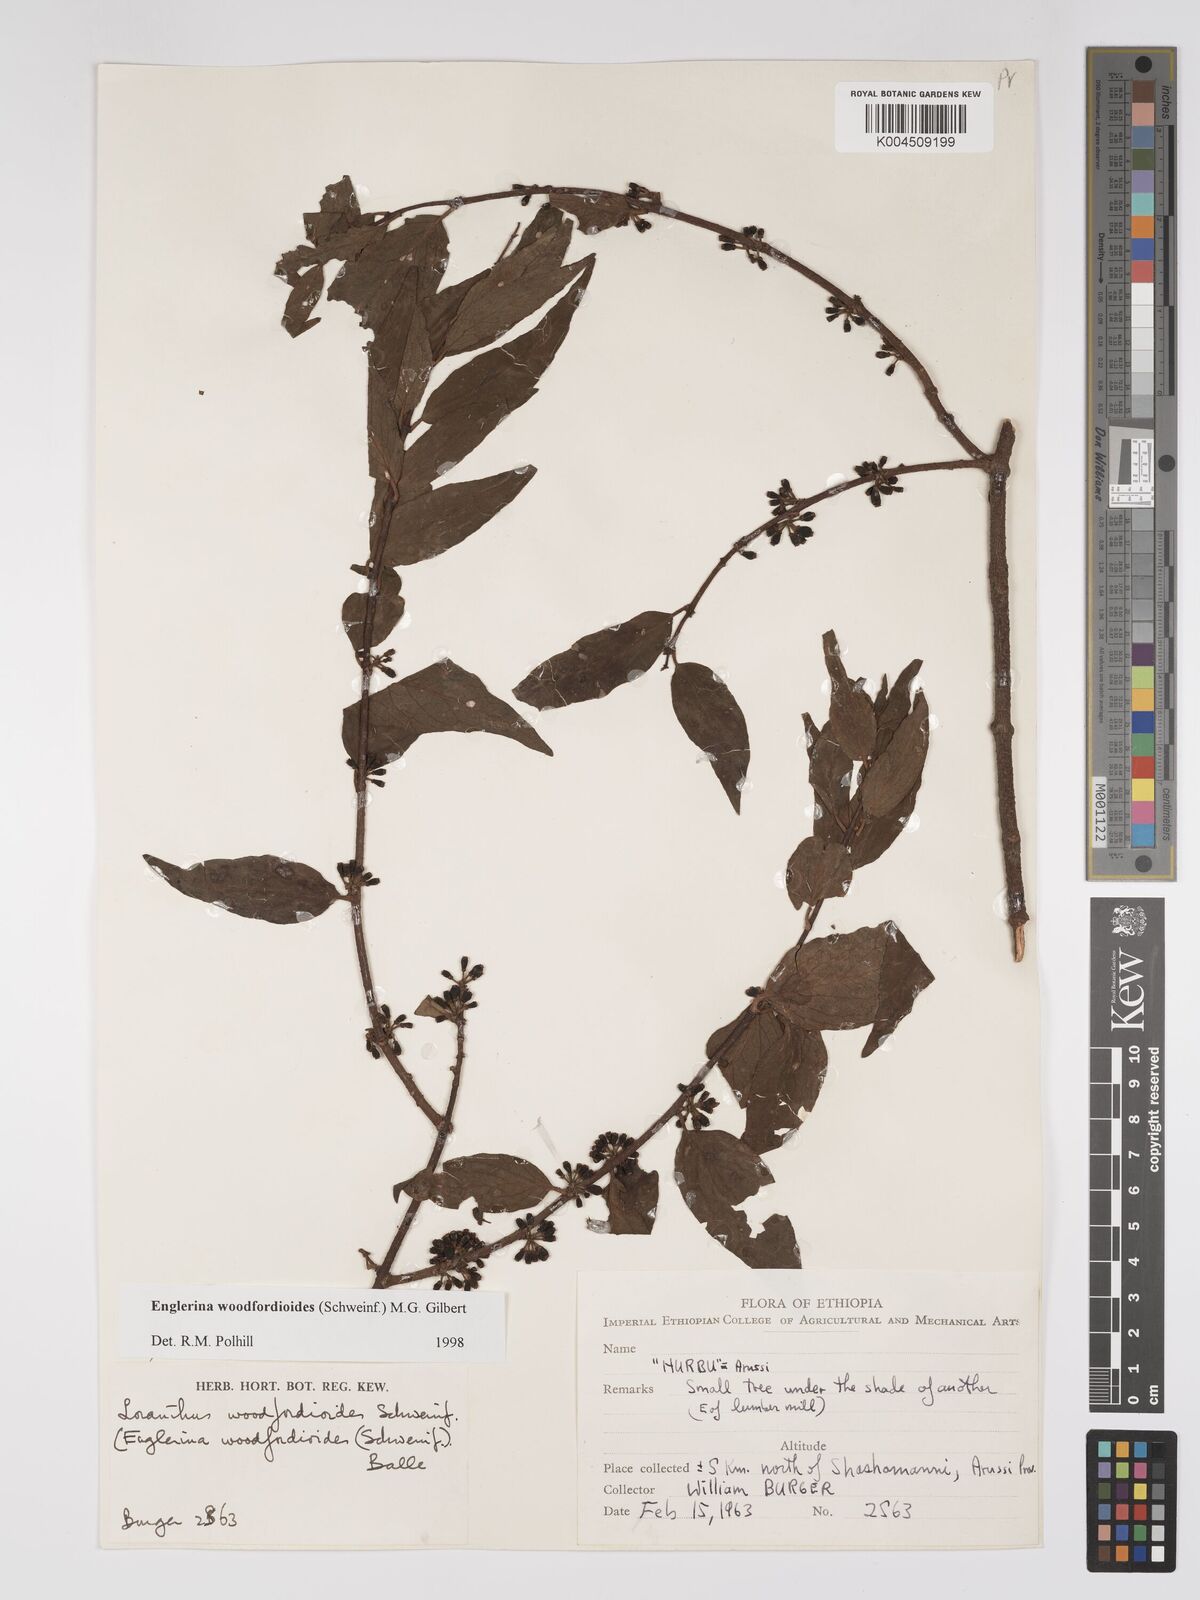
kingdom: Plantae
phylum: Tracheophyta
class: Magnoliopsida
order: Santalales
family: Loranthaceae
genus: Englerina
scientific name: Englerina woodfordioides
